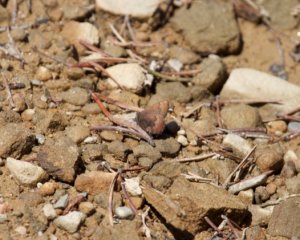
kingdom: Animalia
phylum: Arthropoda
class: Insecta
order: Lepidoptera
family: Lycaenidae
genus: Incisalia
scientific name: Incisalia irioides
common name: Brown Elfin
